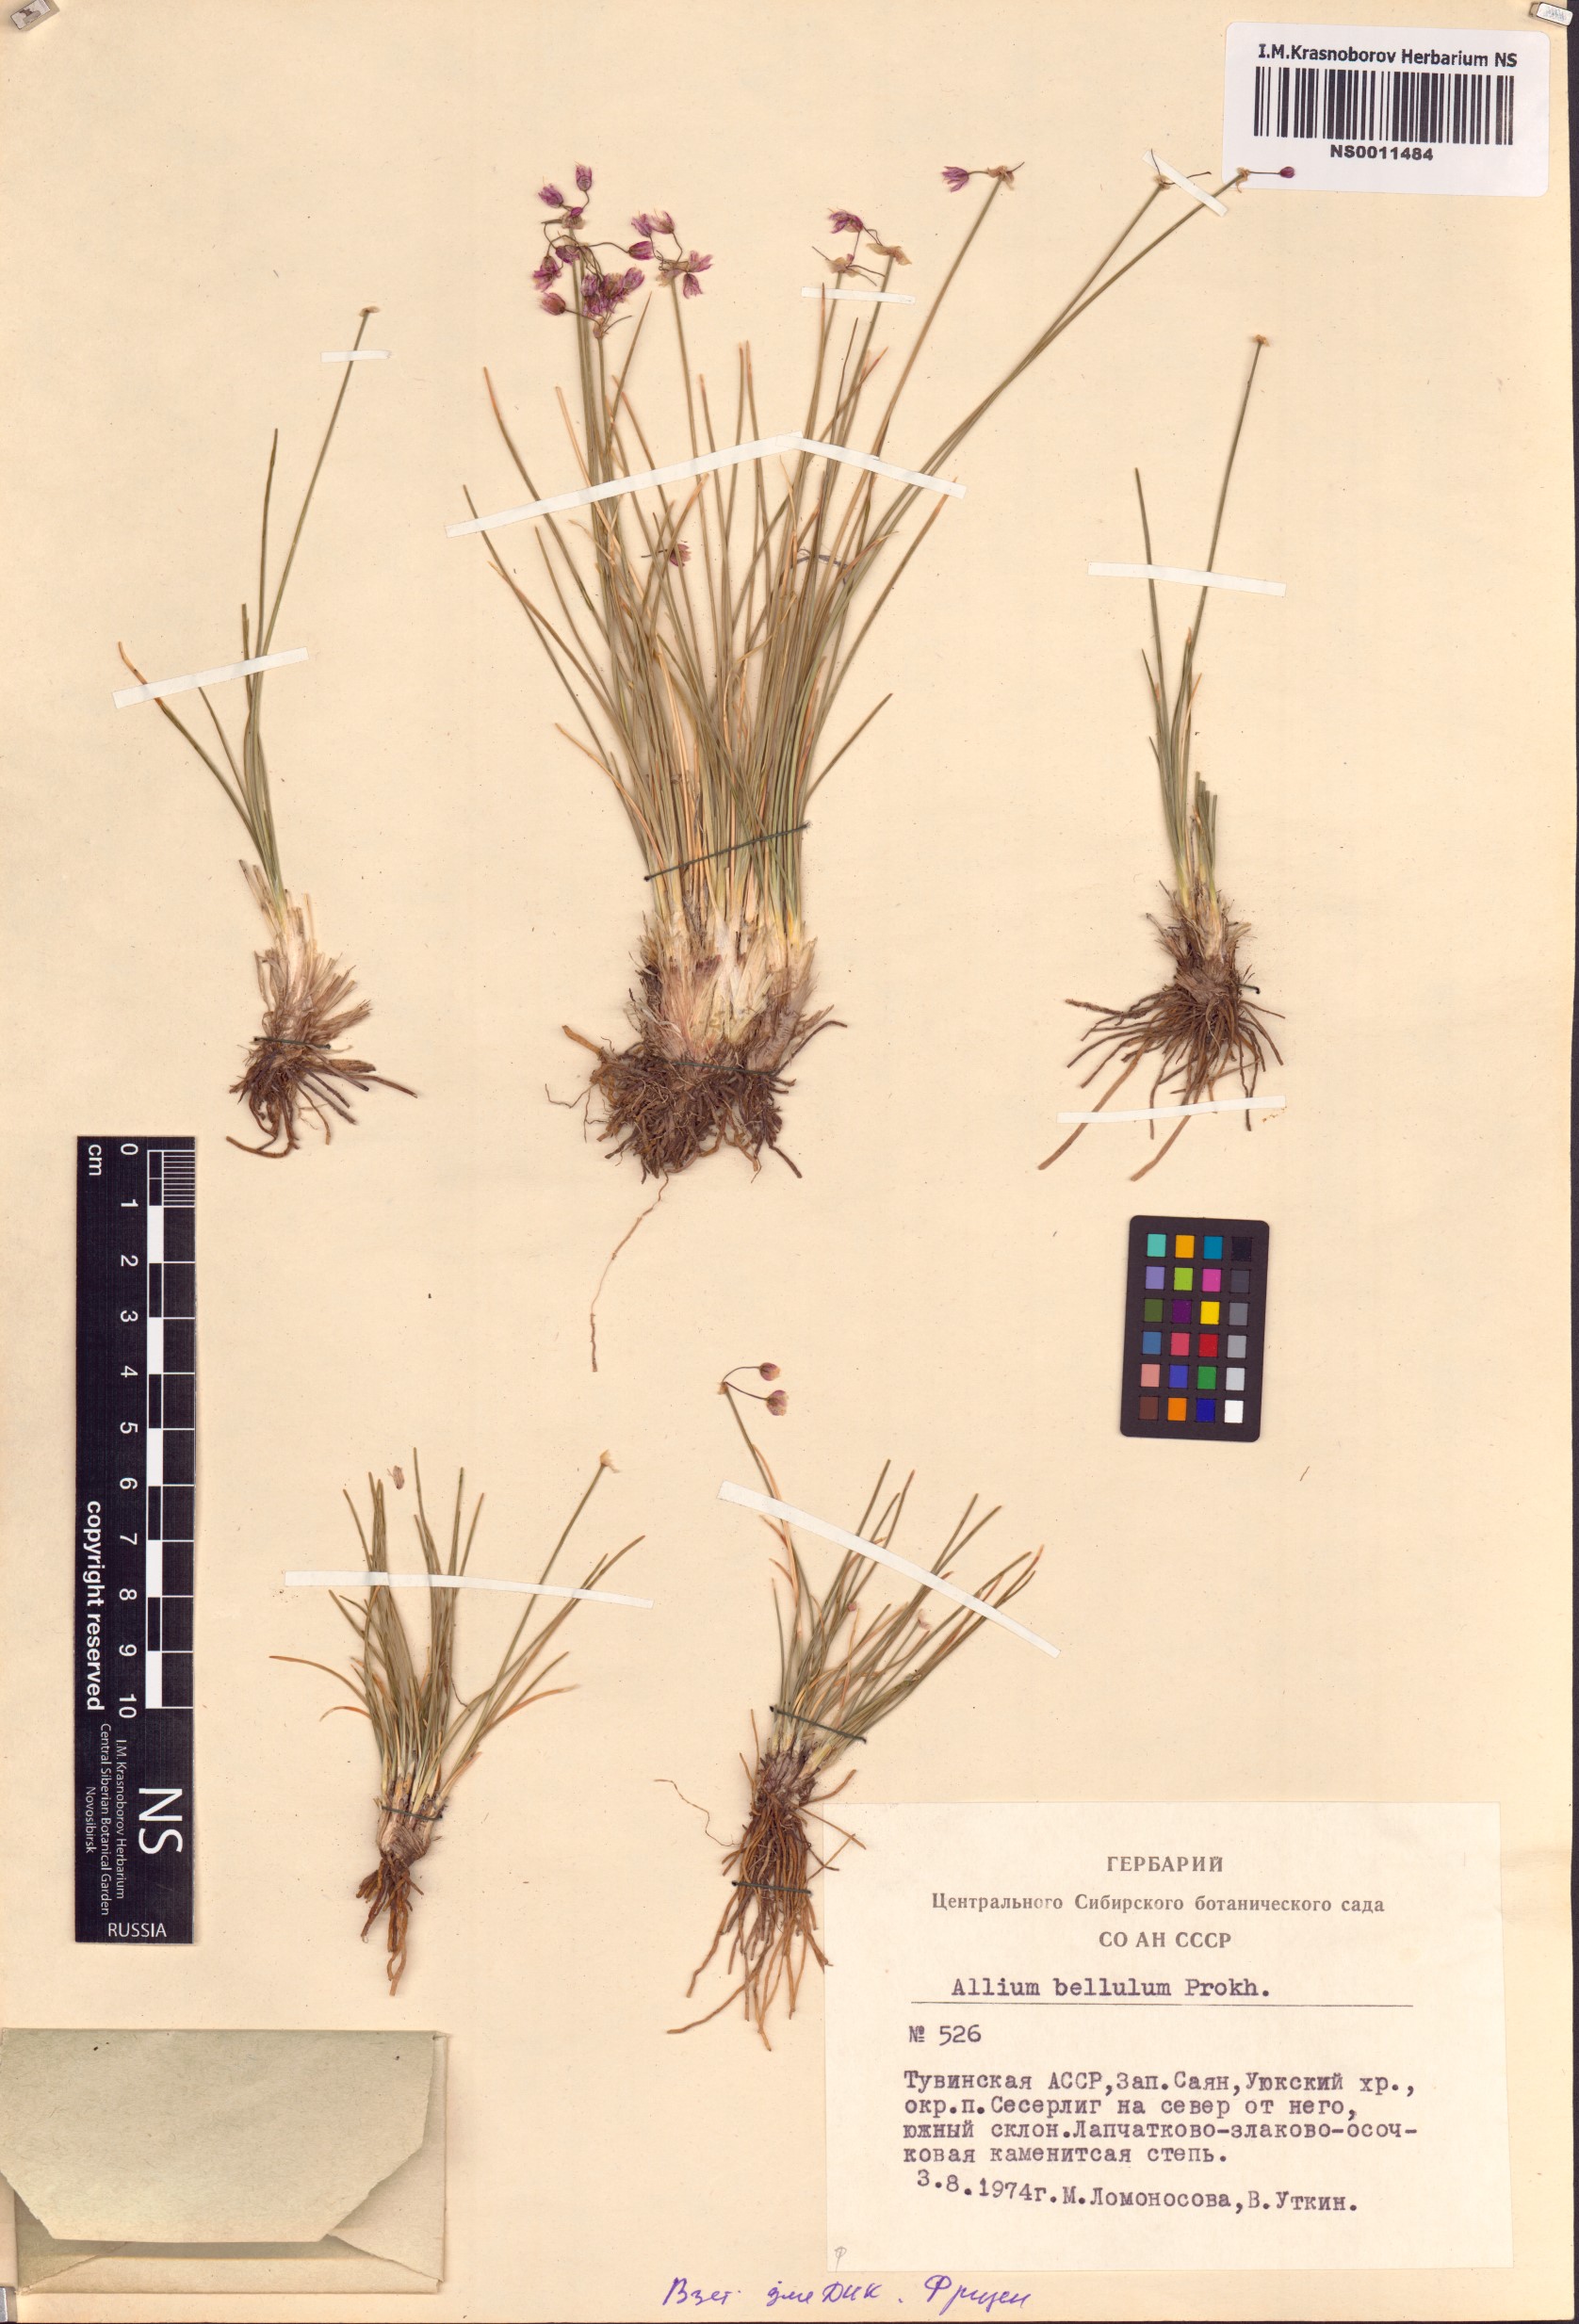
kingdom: Plantae
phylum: Tracheophyta
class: Liliopsida
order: Asparagales
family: Amaryllidaceae
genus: Allium
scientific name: Allium bellulum
